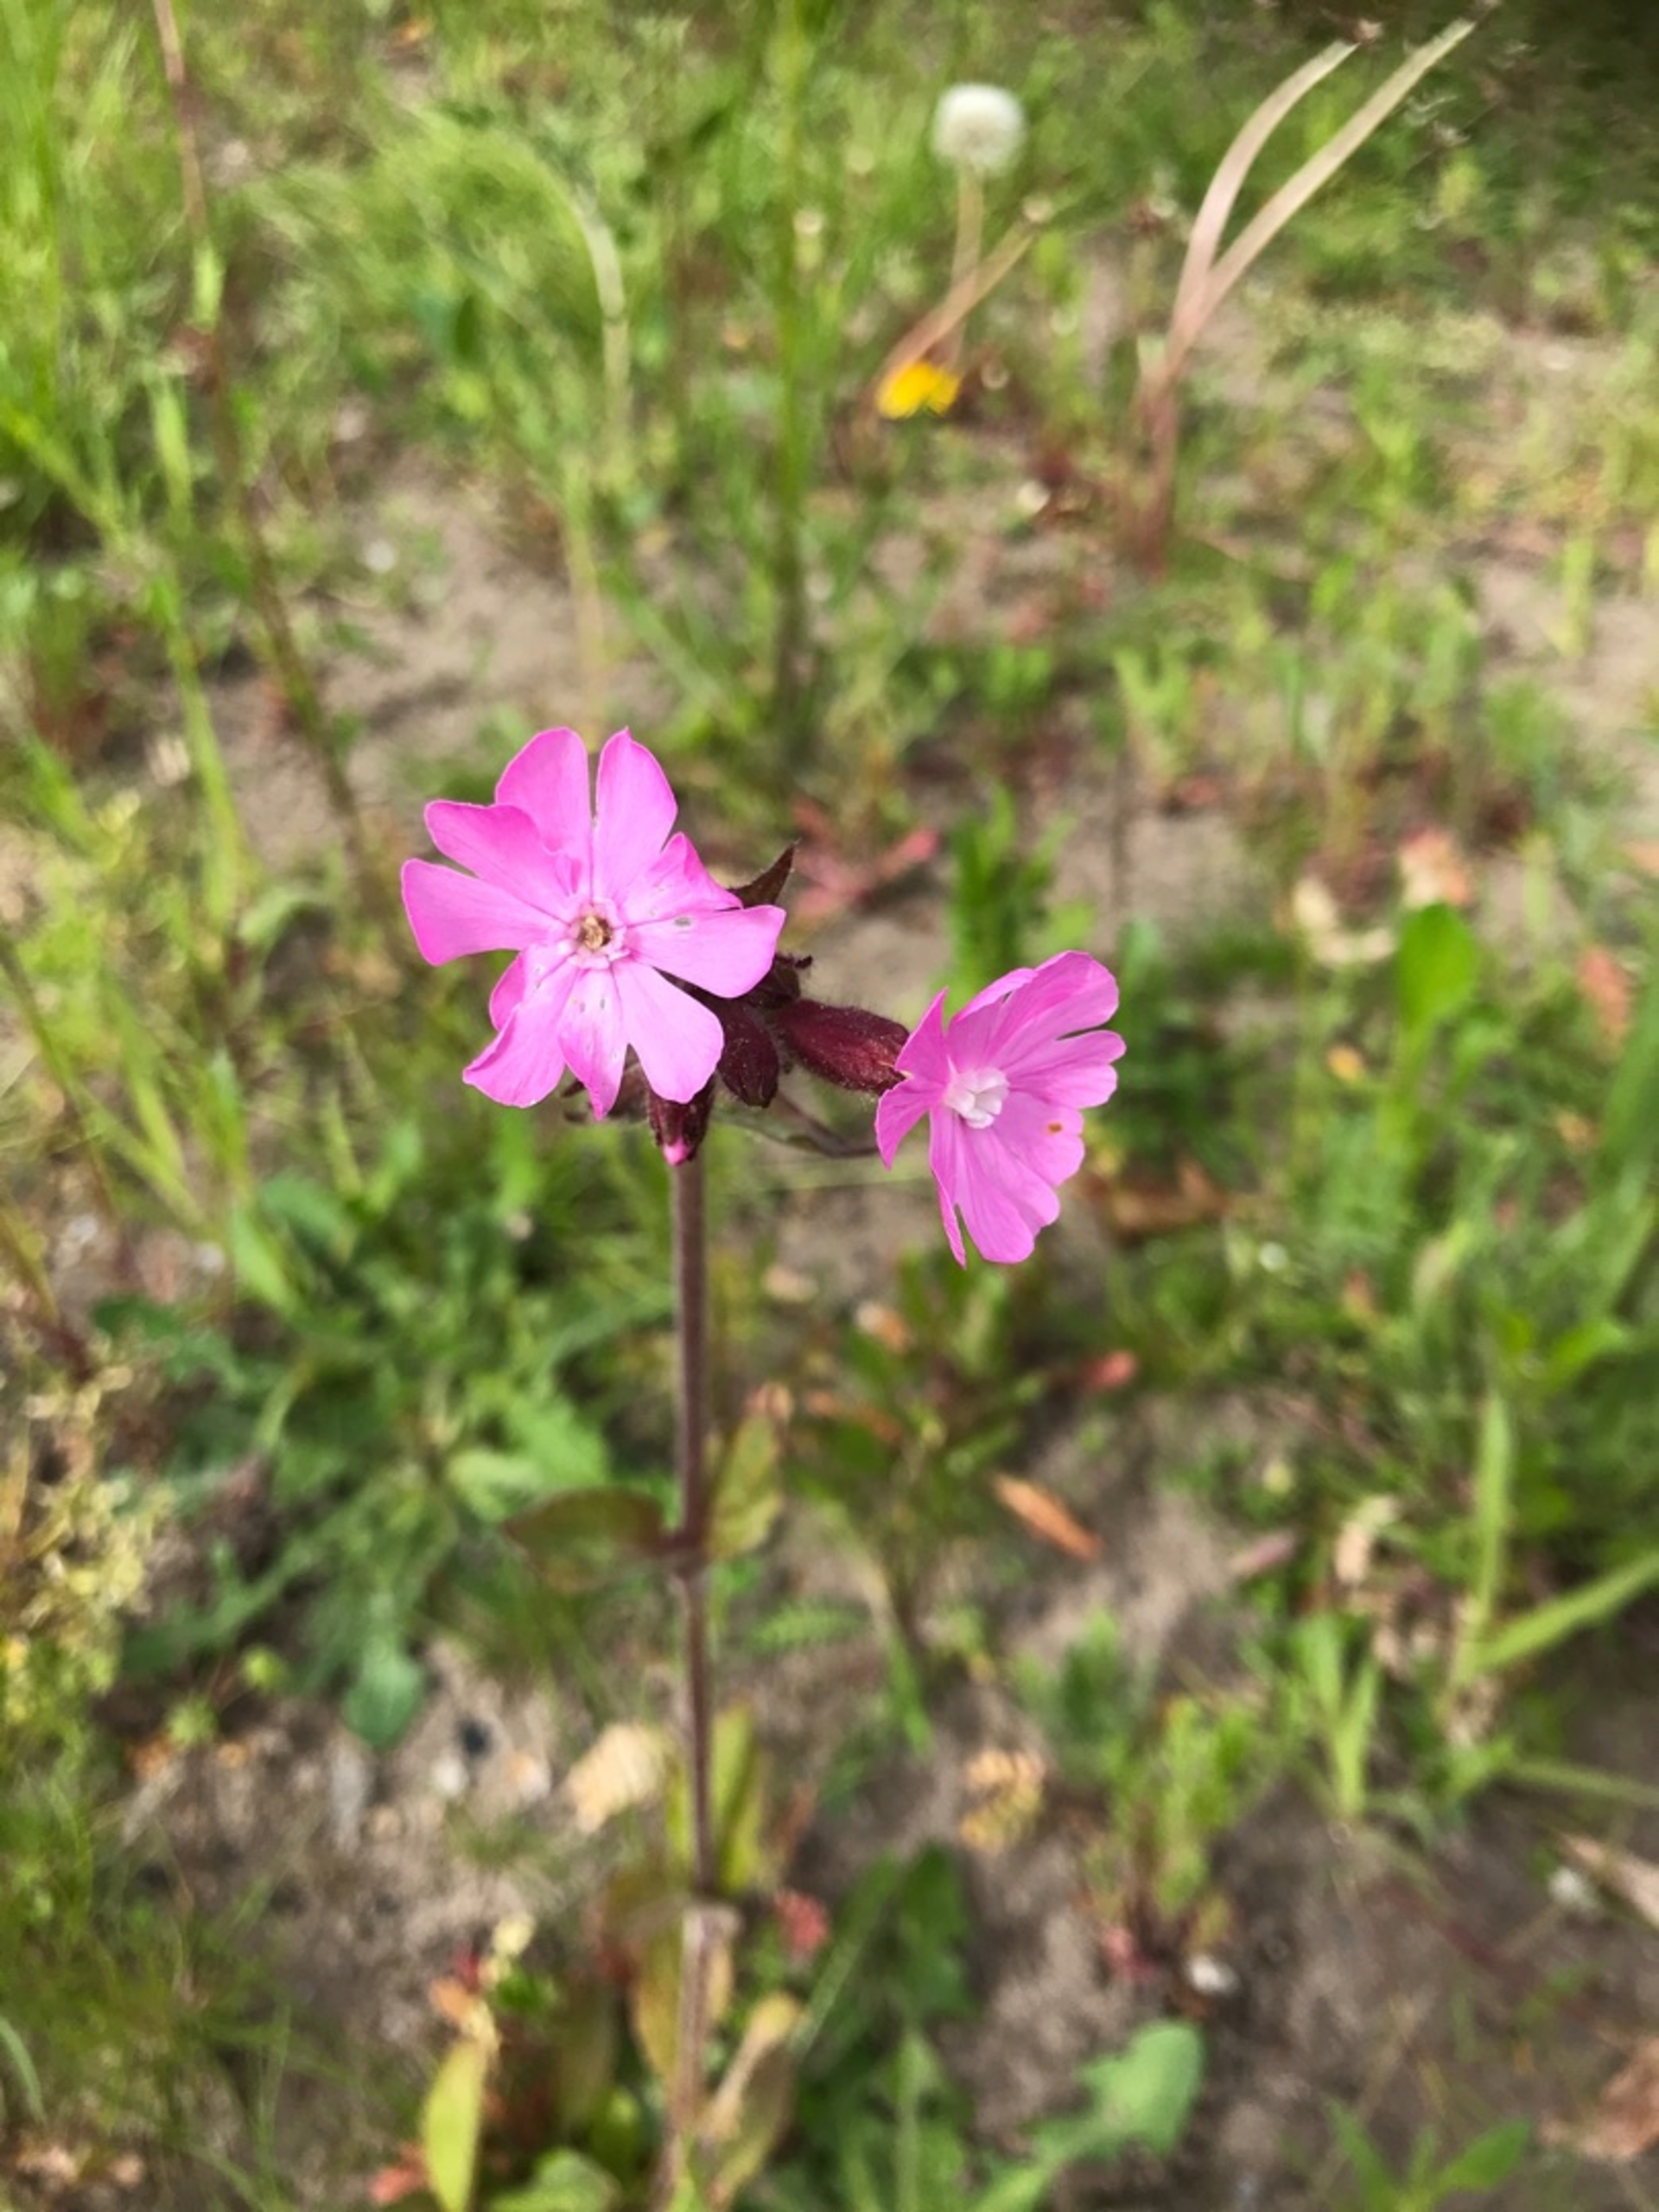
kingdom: Plantae
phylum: Tracheophyta
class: Magnoliopsida
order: Caryophyllales
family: Caryophyllaceae
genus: Silene
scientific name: Silene dioica
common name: Dagpragtstjerne
